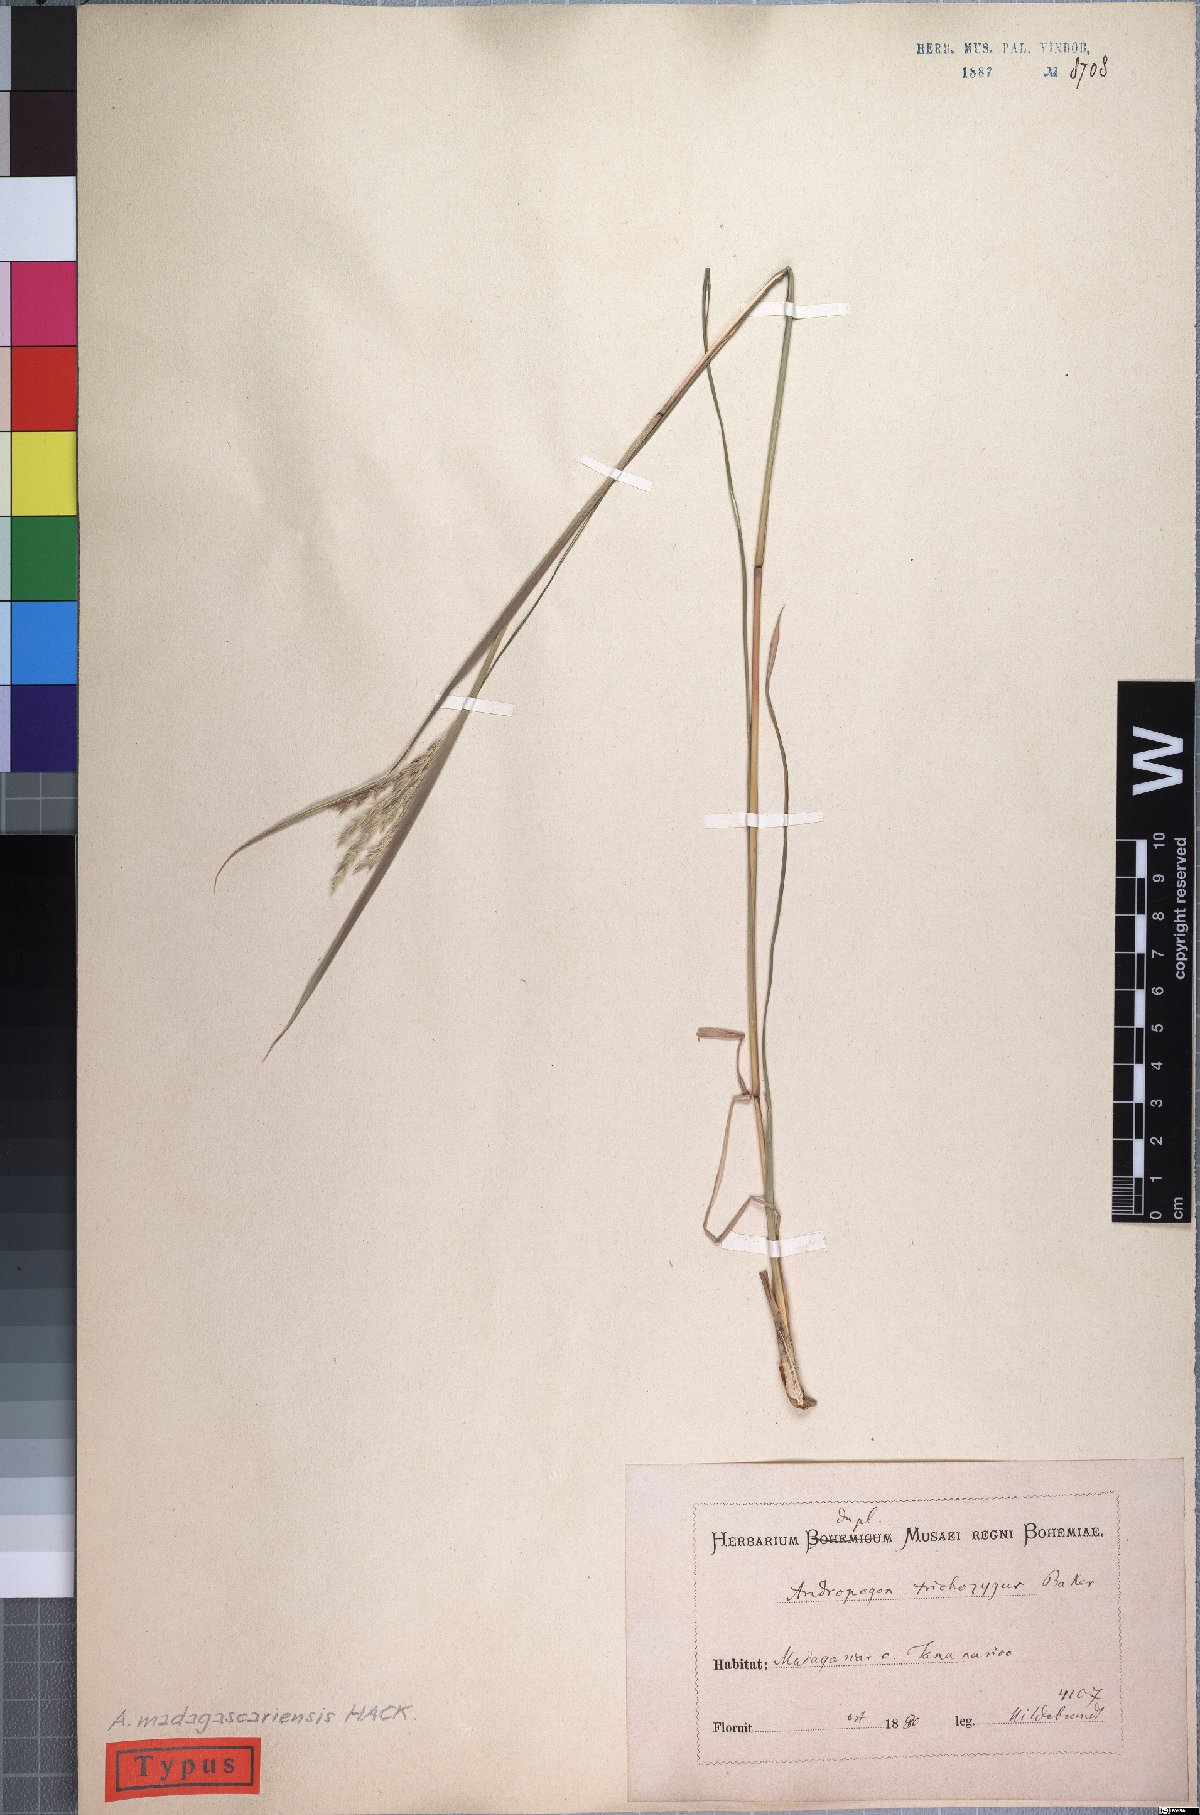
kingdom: Plantae
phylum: Tracheophyta
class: Liliopsida
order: Poales
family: Poaceae
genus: Andropogon
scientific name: Andropogon trichozygus
